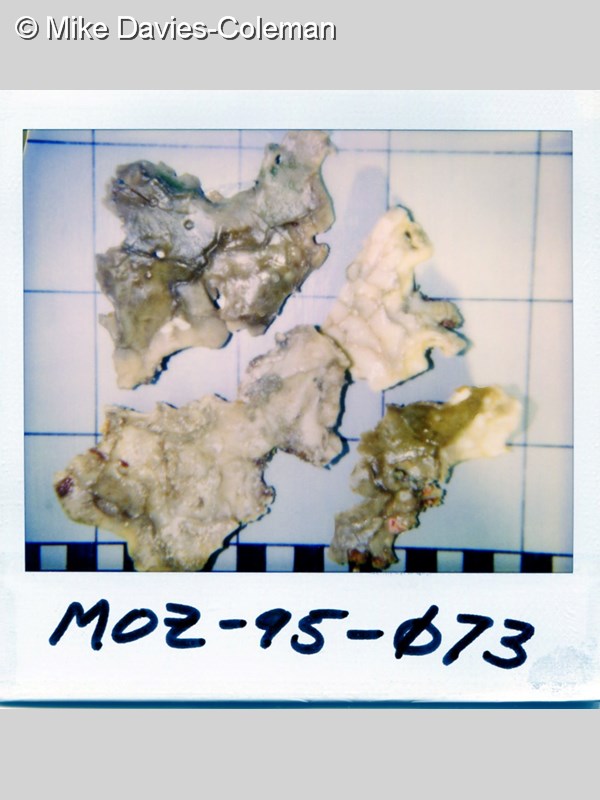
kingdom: Animalia
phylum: Porifera
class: Demospongiae
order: Poecilosclerida
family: Tedaniidae
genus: Tedania
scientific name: Tedania
